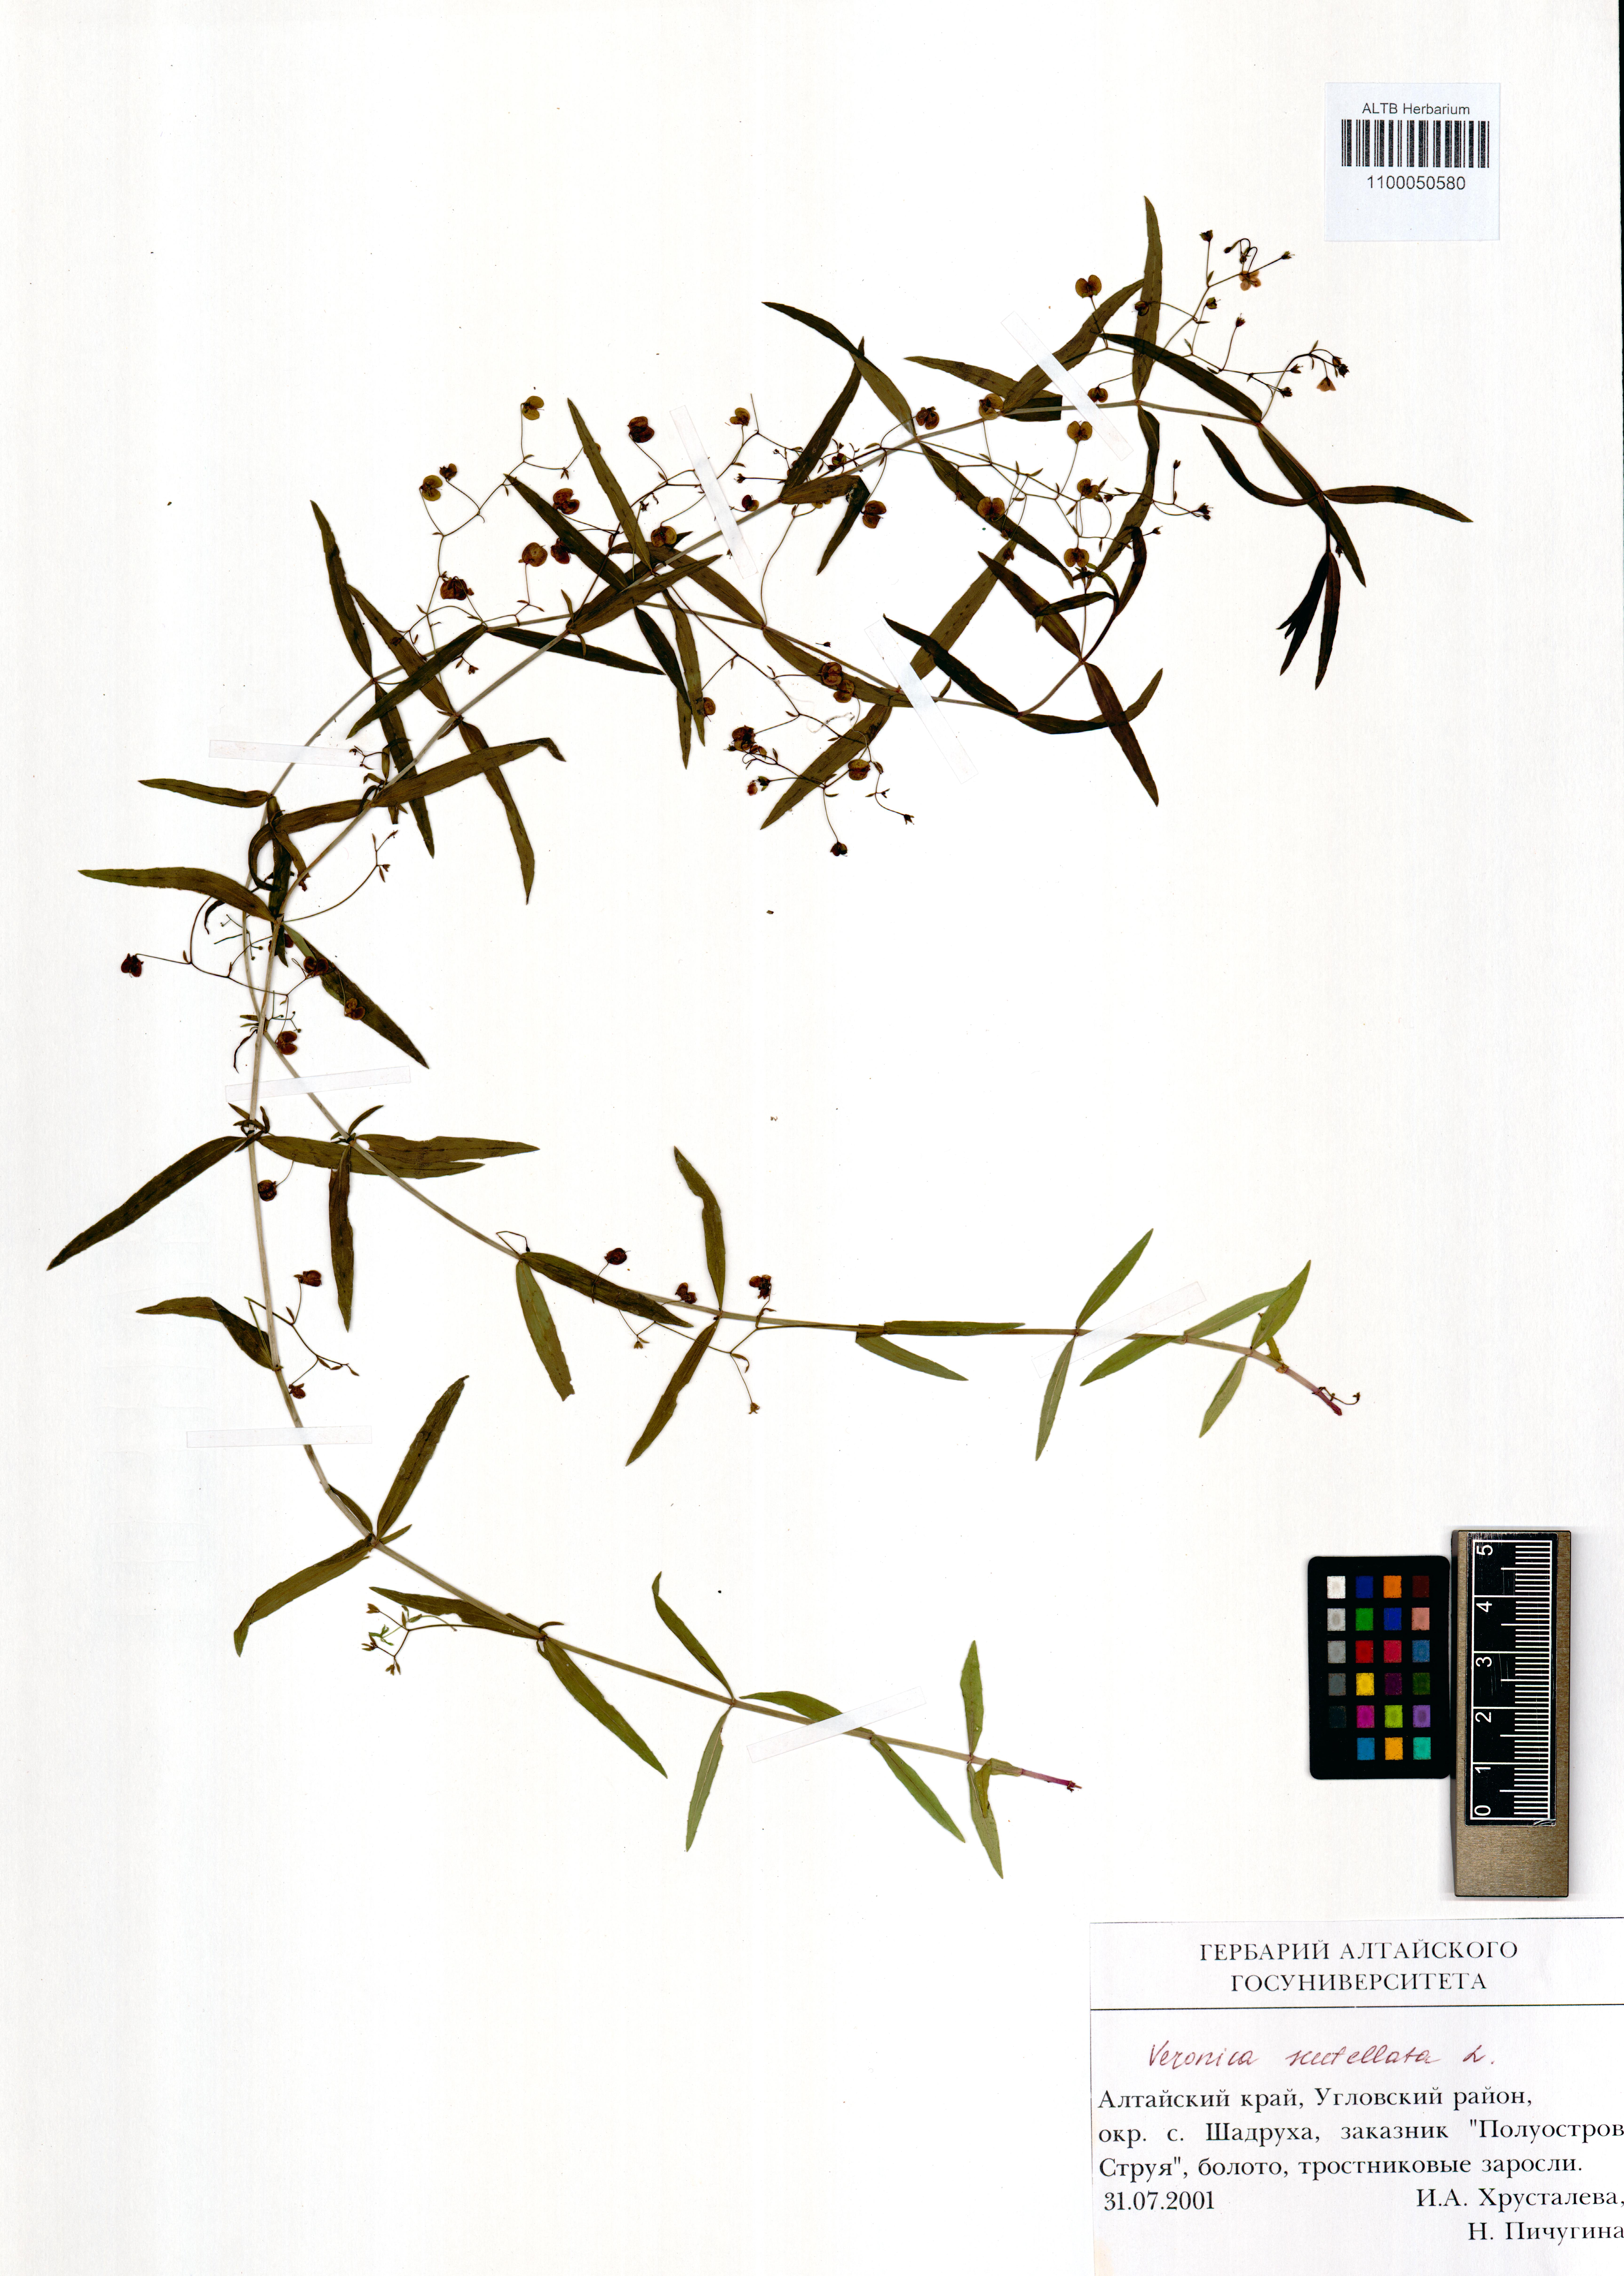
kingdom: Plantae
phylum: Tracheophyta
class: Magnoliopsida
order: Lamiales
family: Plantaginaceae
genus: Veronica
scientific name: Veronica scutellata
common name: Marsh speedwell
